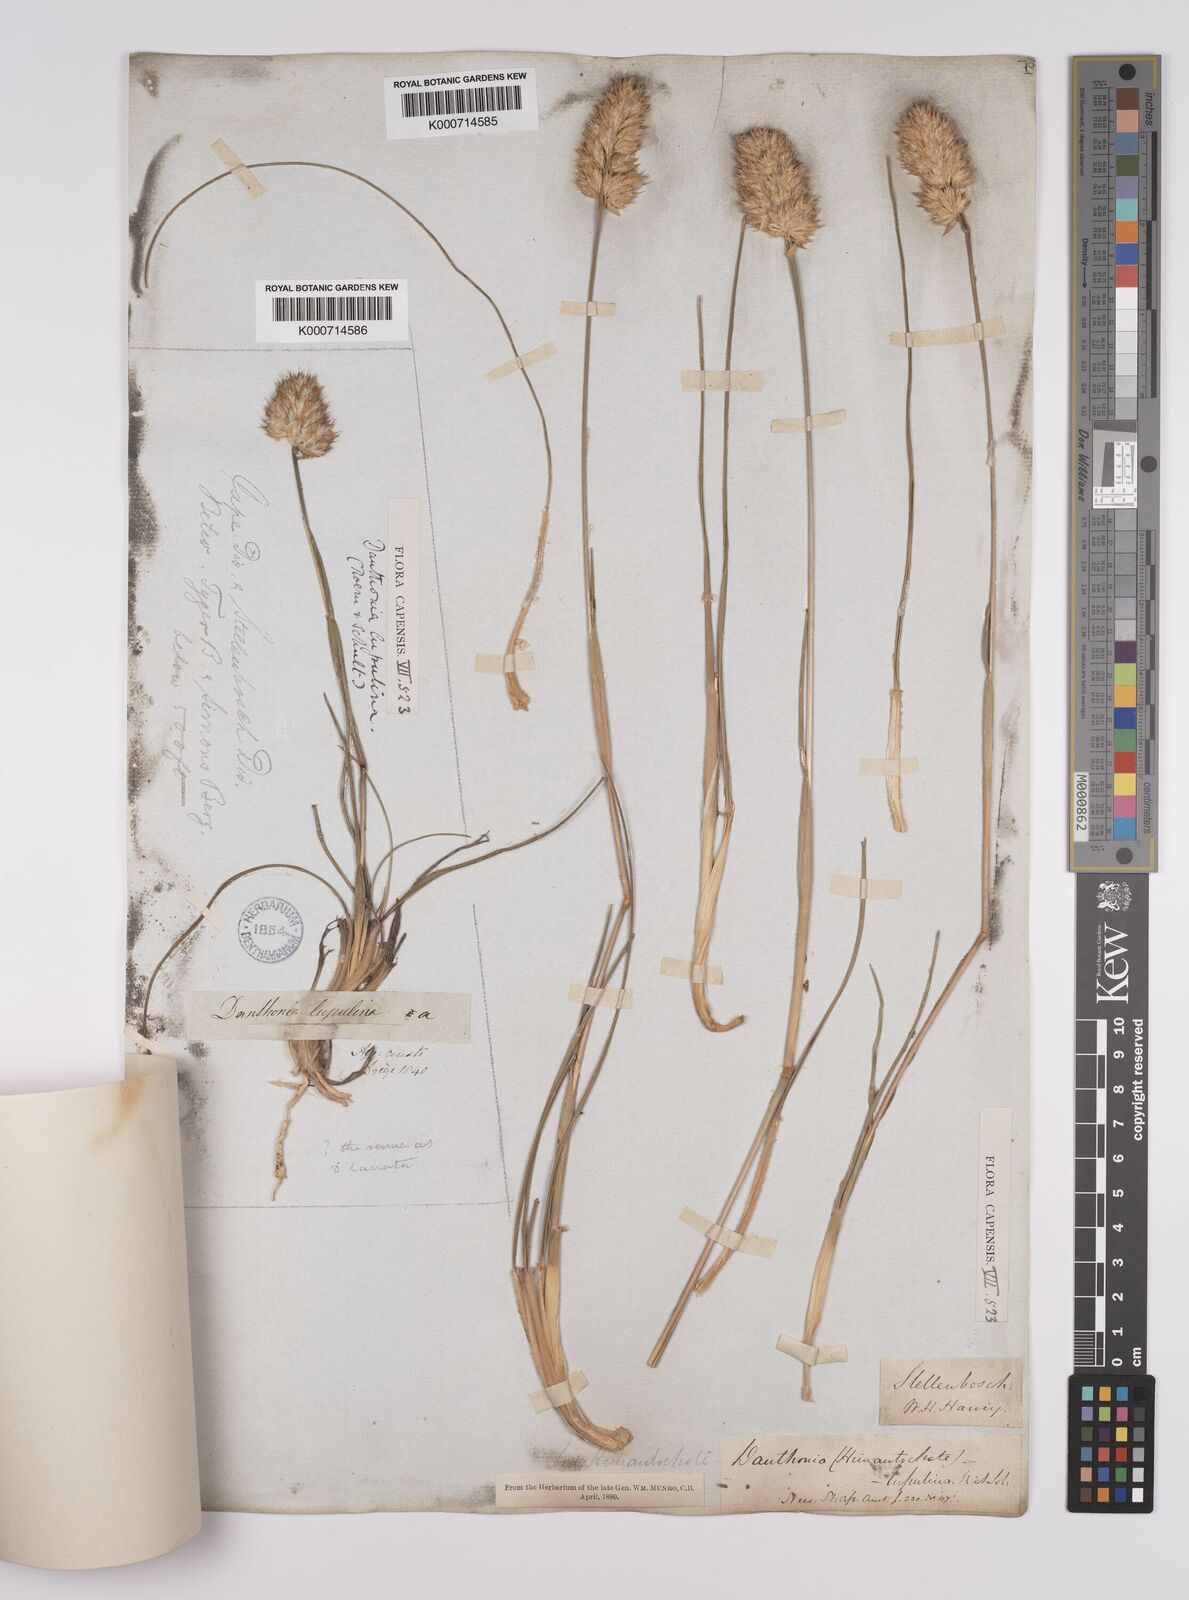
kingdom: Plantae
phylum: Tracheophyta
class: Liliopsida
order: Poales
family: Poaceae
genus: Rytidosperma
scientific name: Rytidosperma
